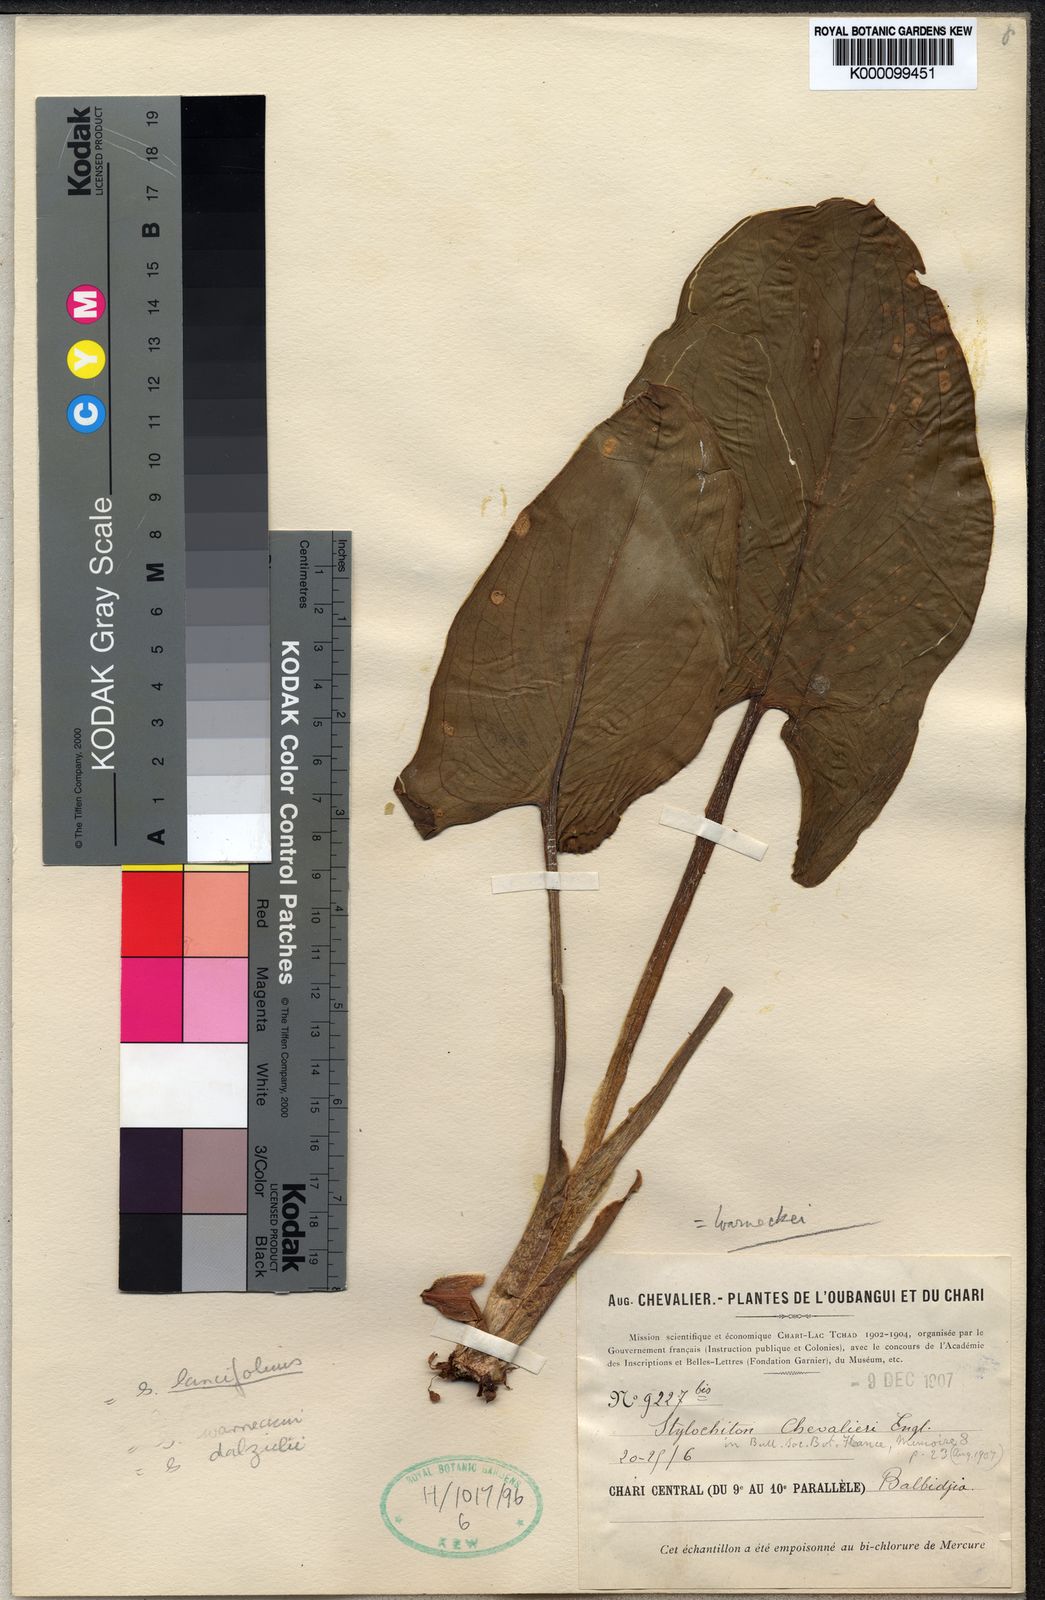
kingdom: Plantae
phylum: Tracheophyta
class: Liliopsida
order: Alismatales
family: Araceae
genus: Stylochaeton
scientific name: Stylochaeton lancifolium
